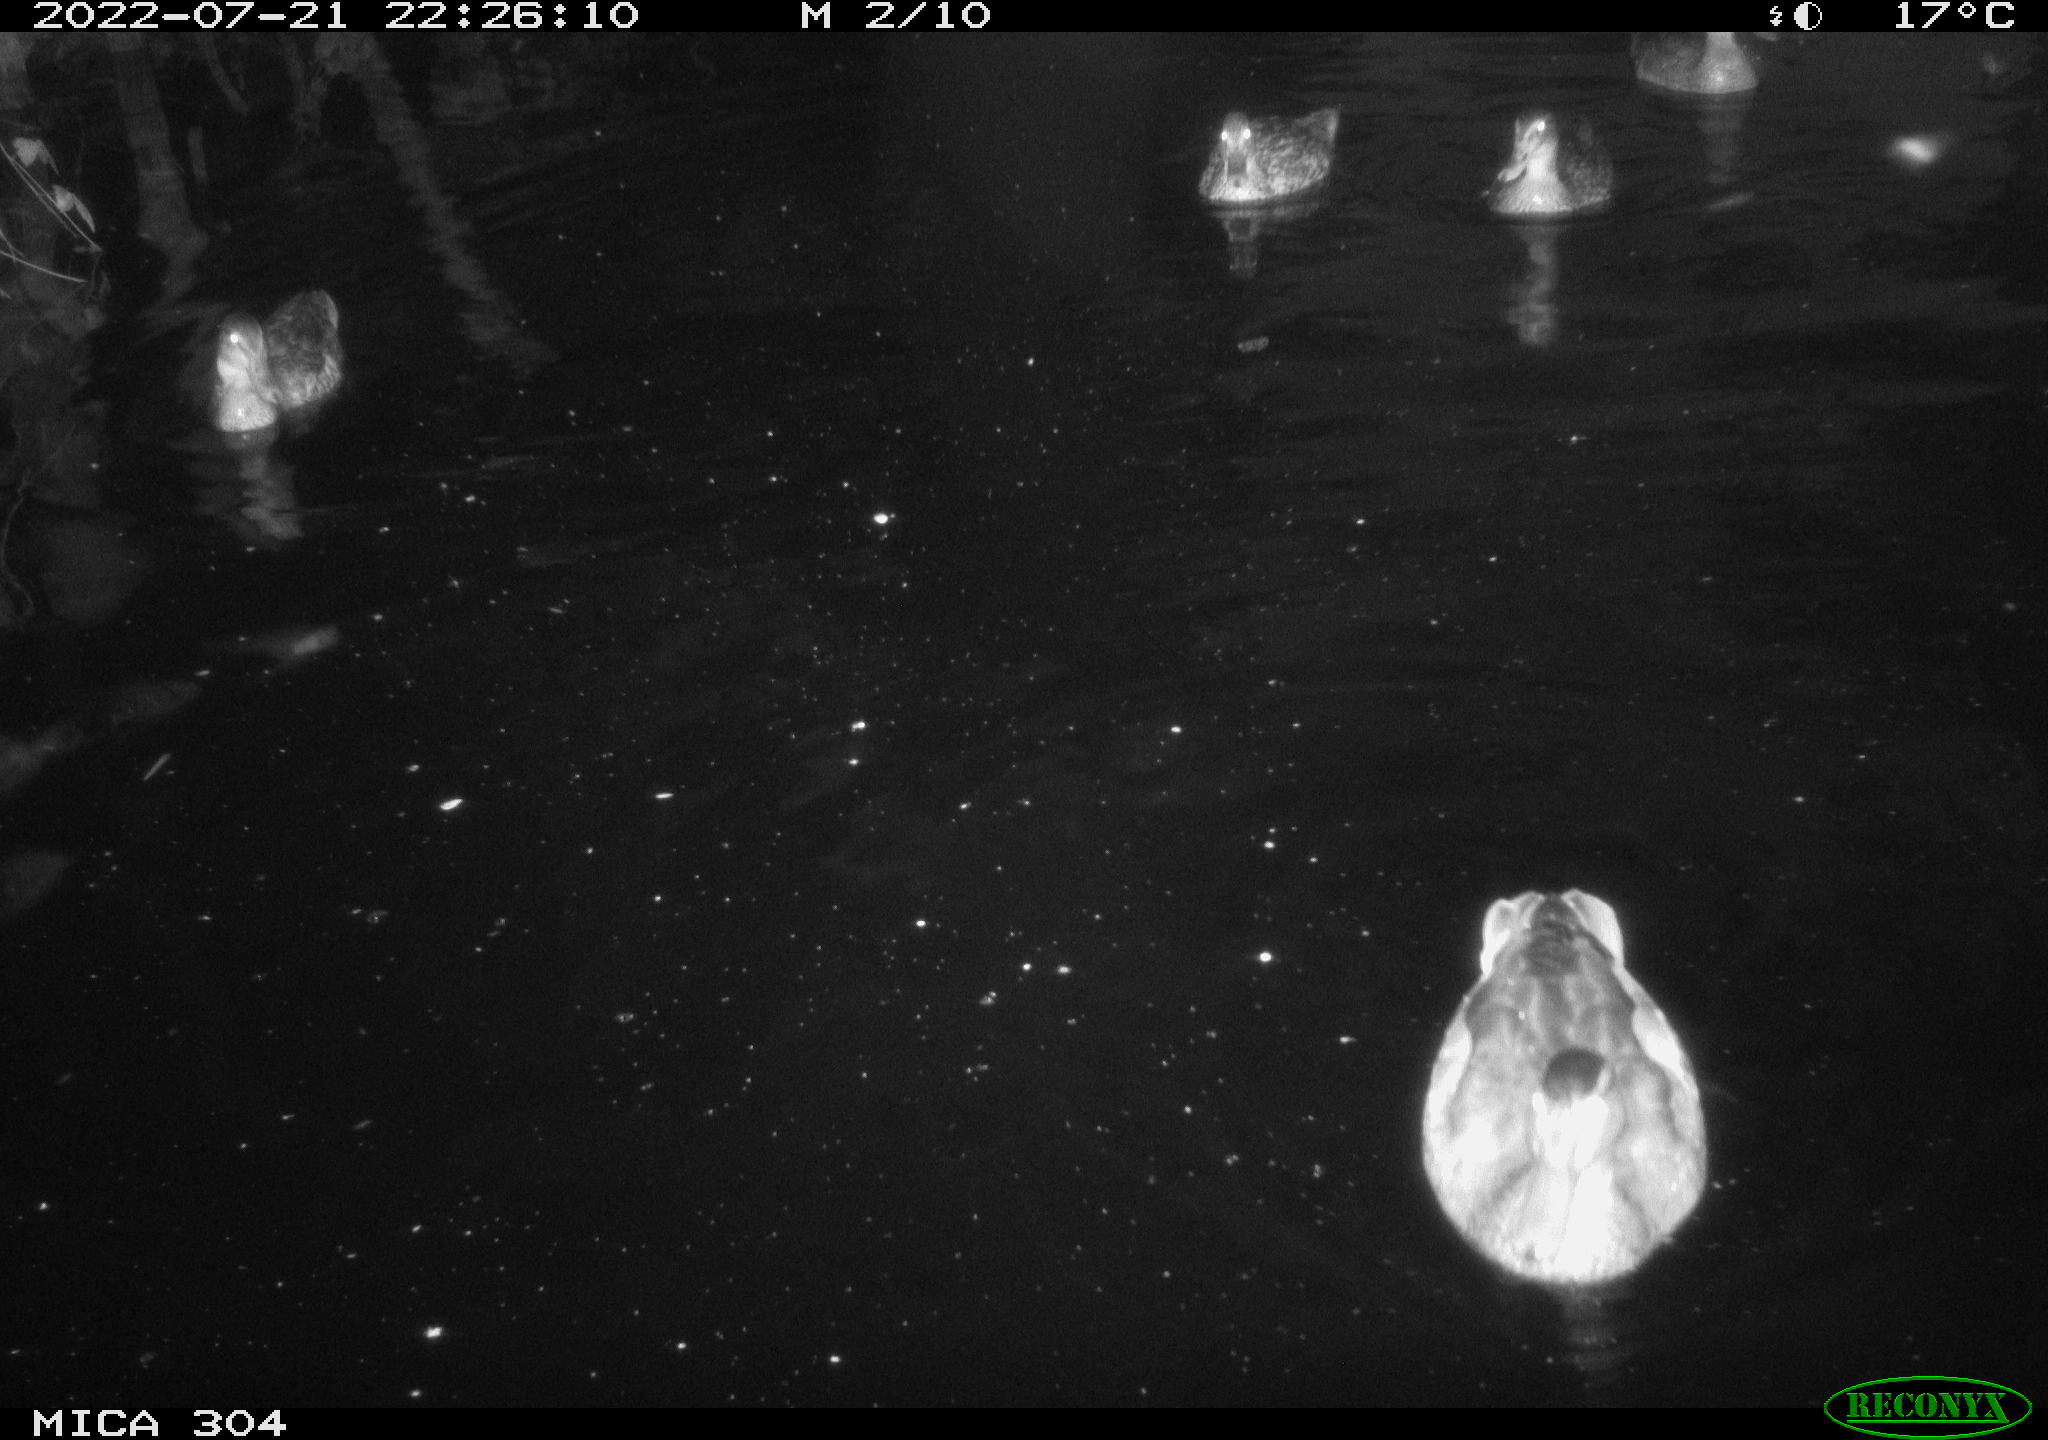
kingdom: Animalia
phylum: Chordata
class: Aves
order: Anseriformes
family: Anatidae
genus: Anas
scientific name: Anas platyrhynchos
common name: Mallard
